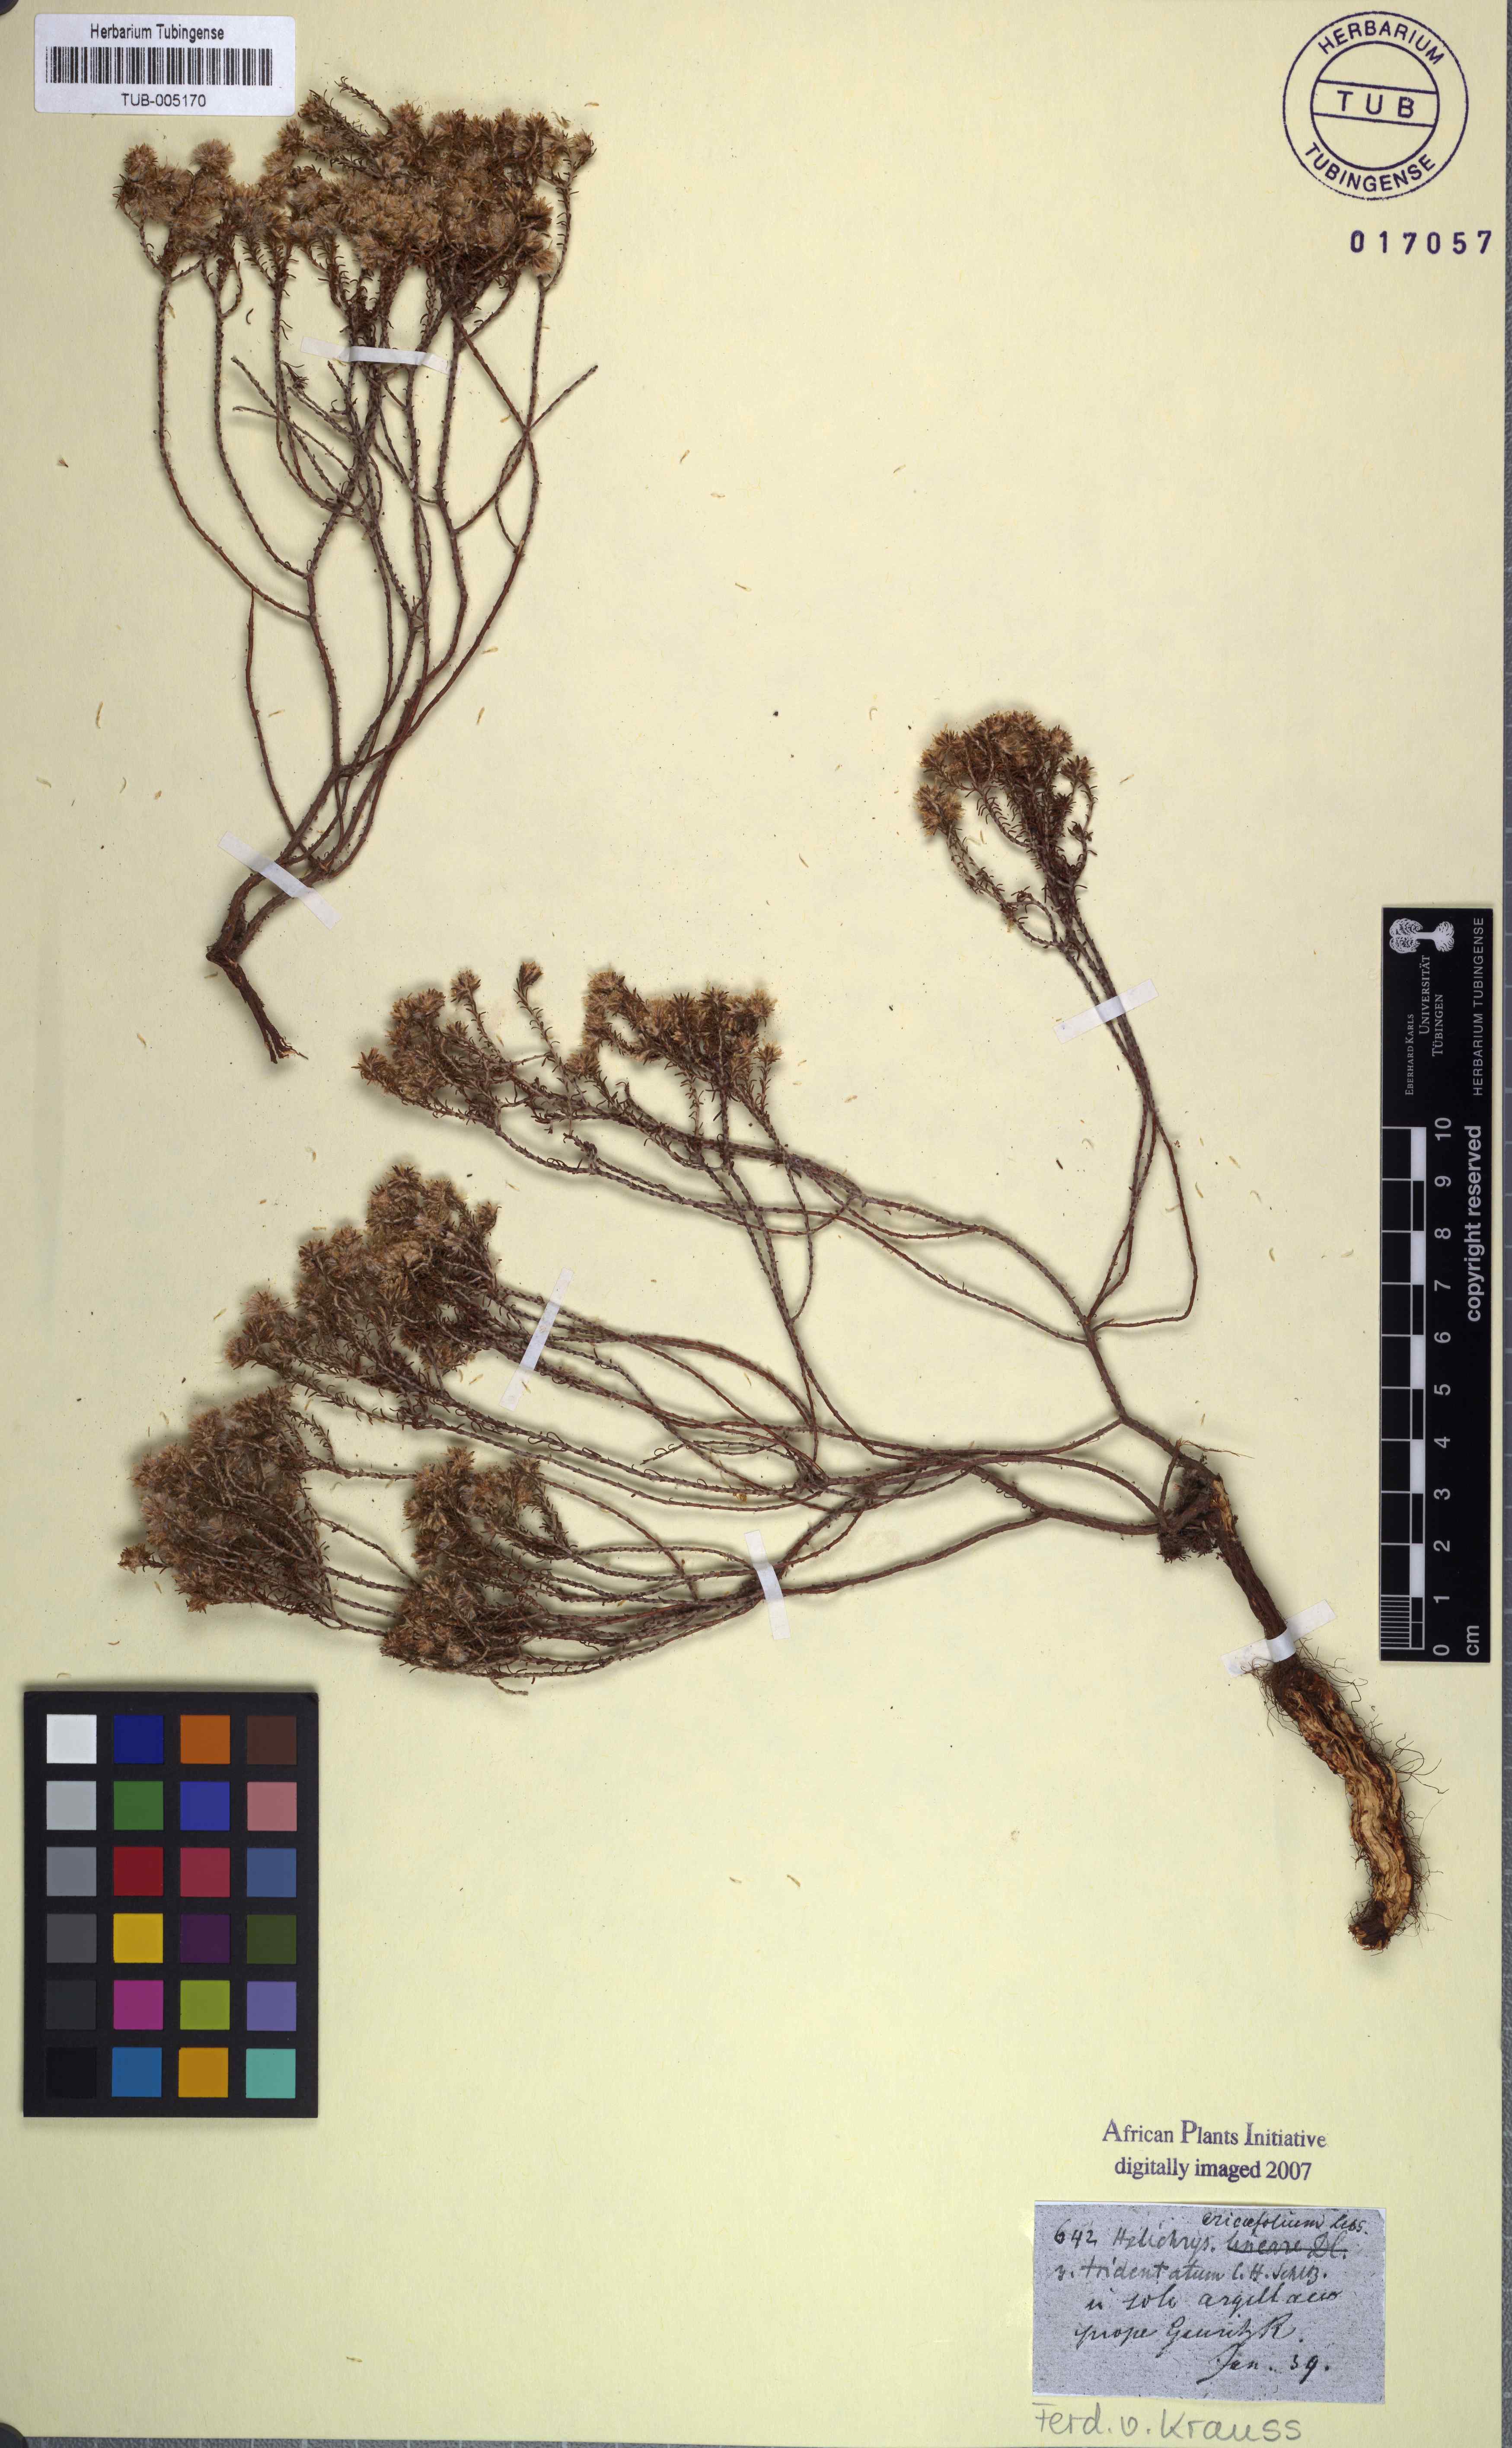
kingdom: Plantae
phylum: Tracheophyta
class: Magnoliopsida
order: Asterales
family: Asteraceae
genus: Helichrysum
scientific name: Helichrysum asperum
